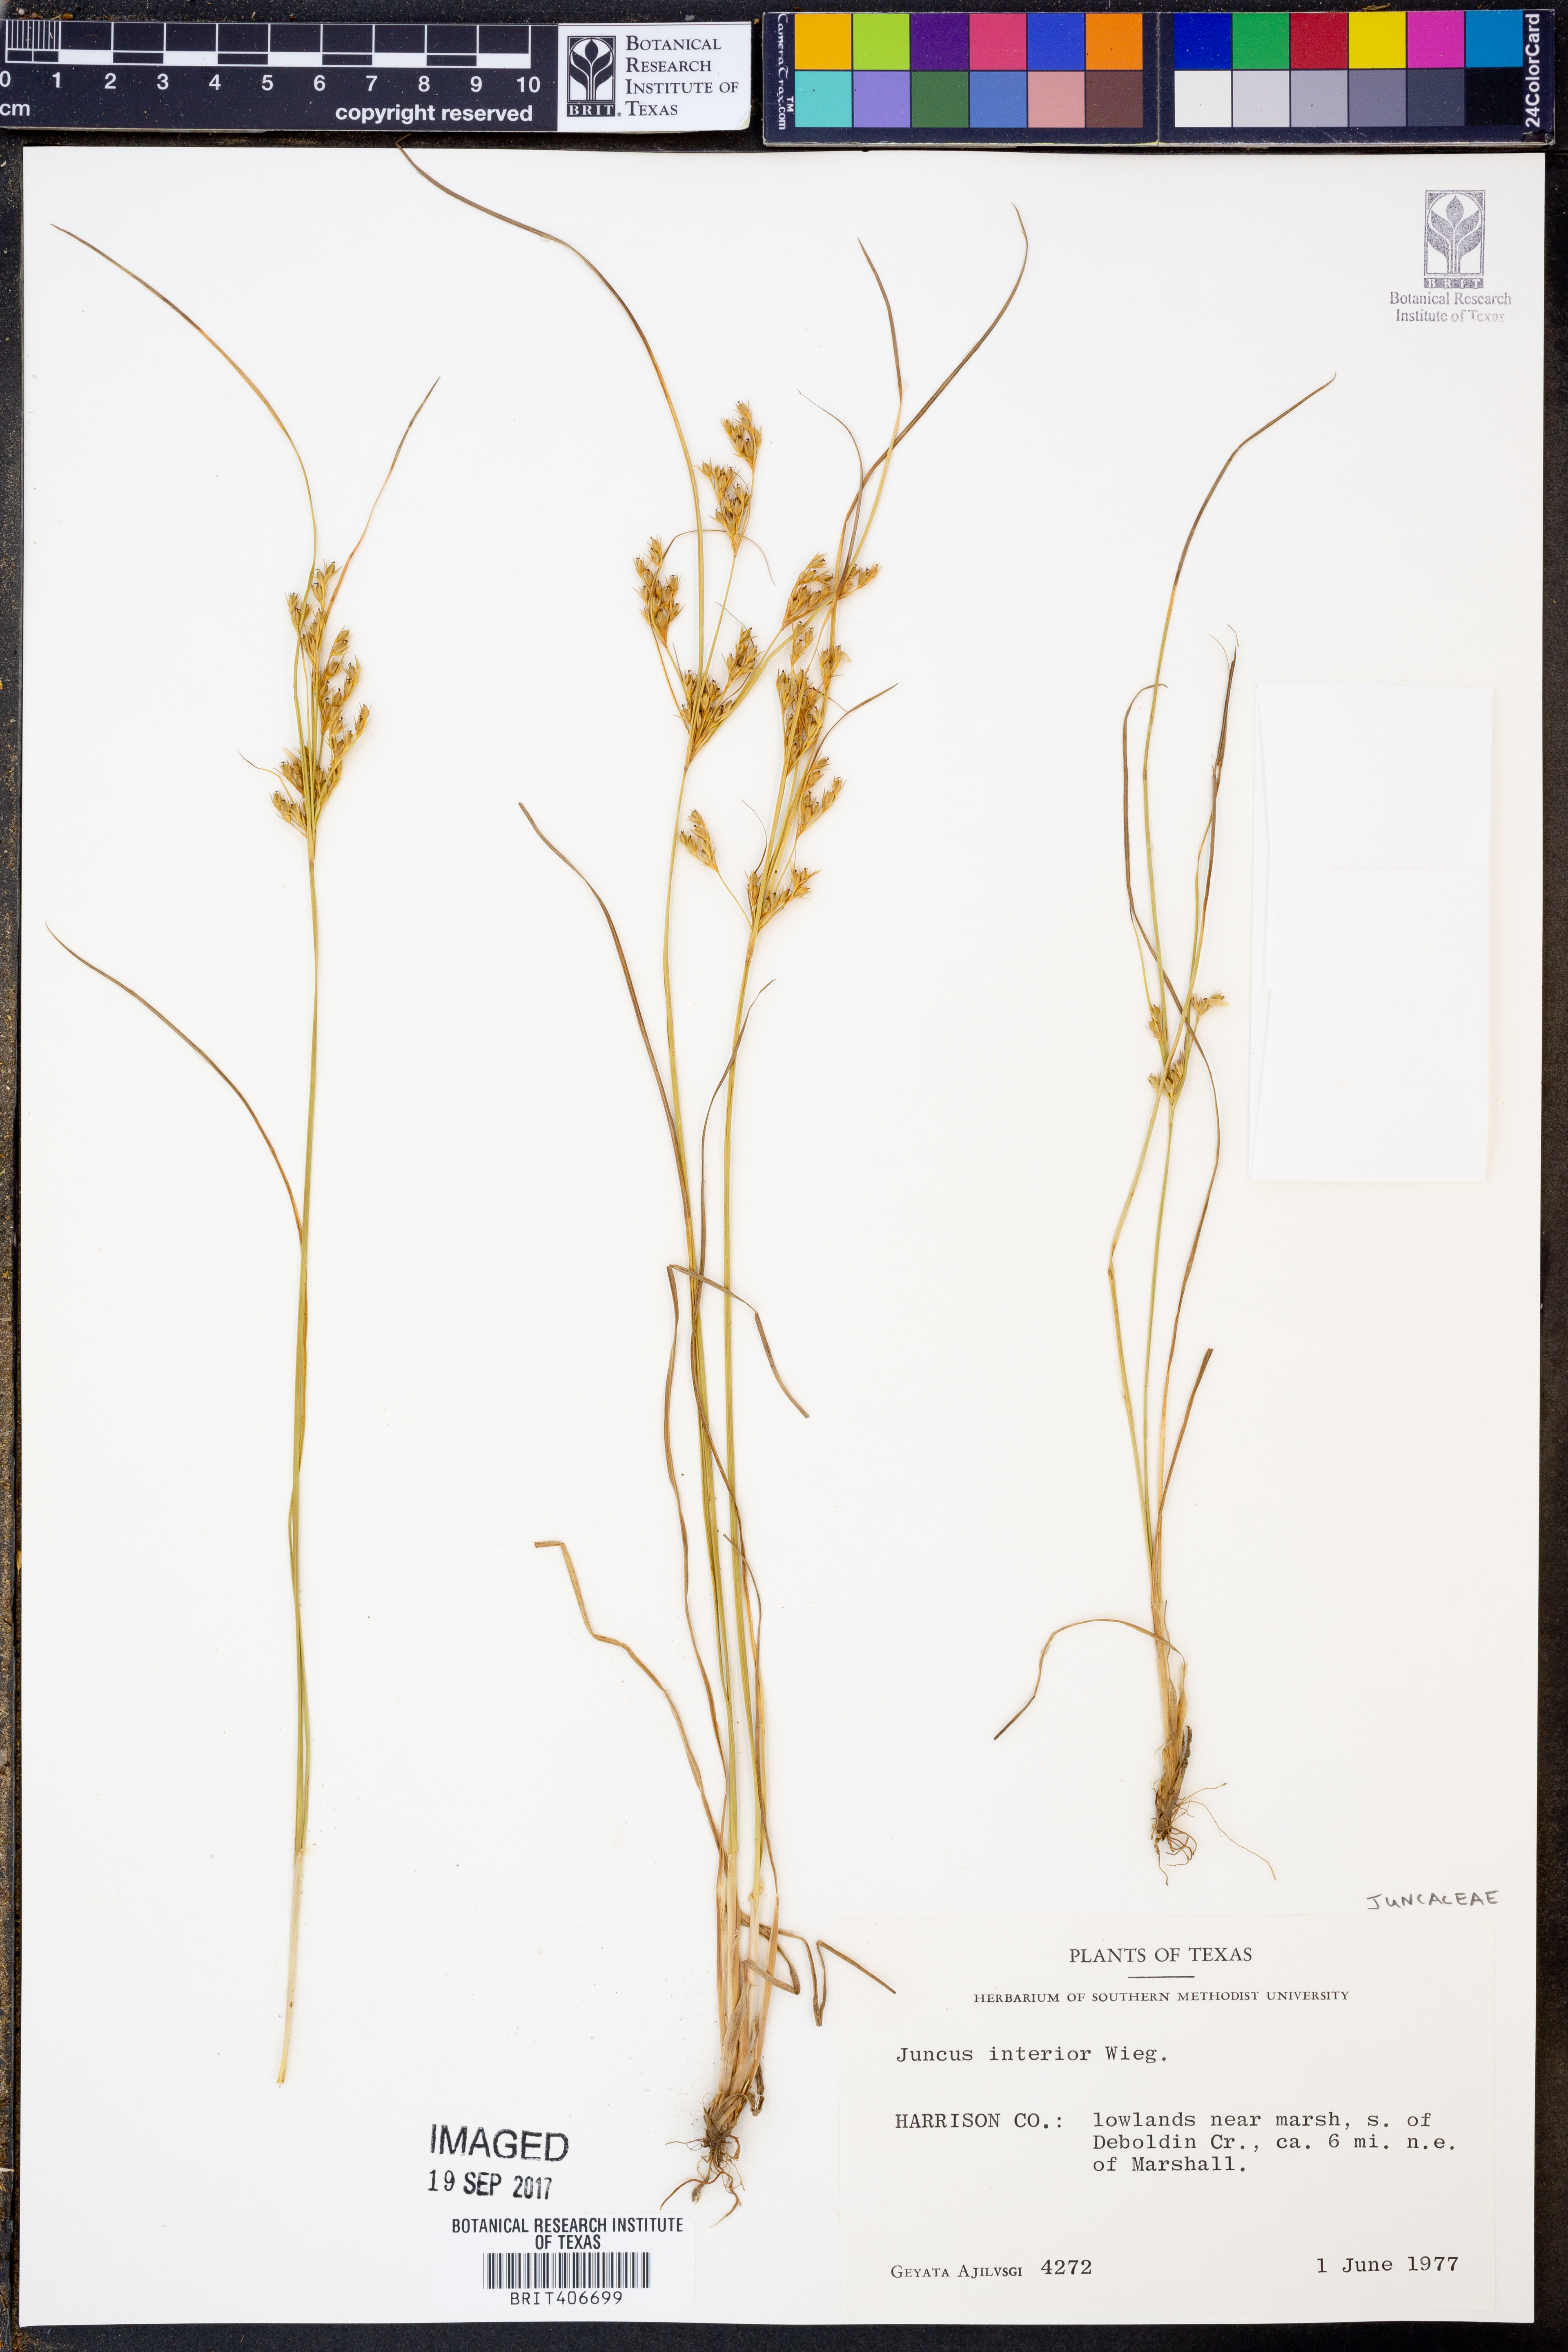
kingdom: Plantae
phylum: Tracheophyta
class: Liliopsida
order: Poales
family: Juncaceae
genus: Juncus
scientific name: Juncus interior
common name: Interior rush
